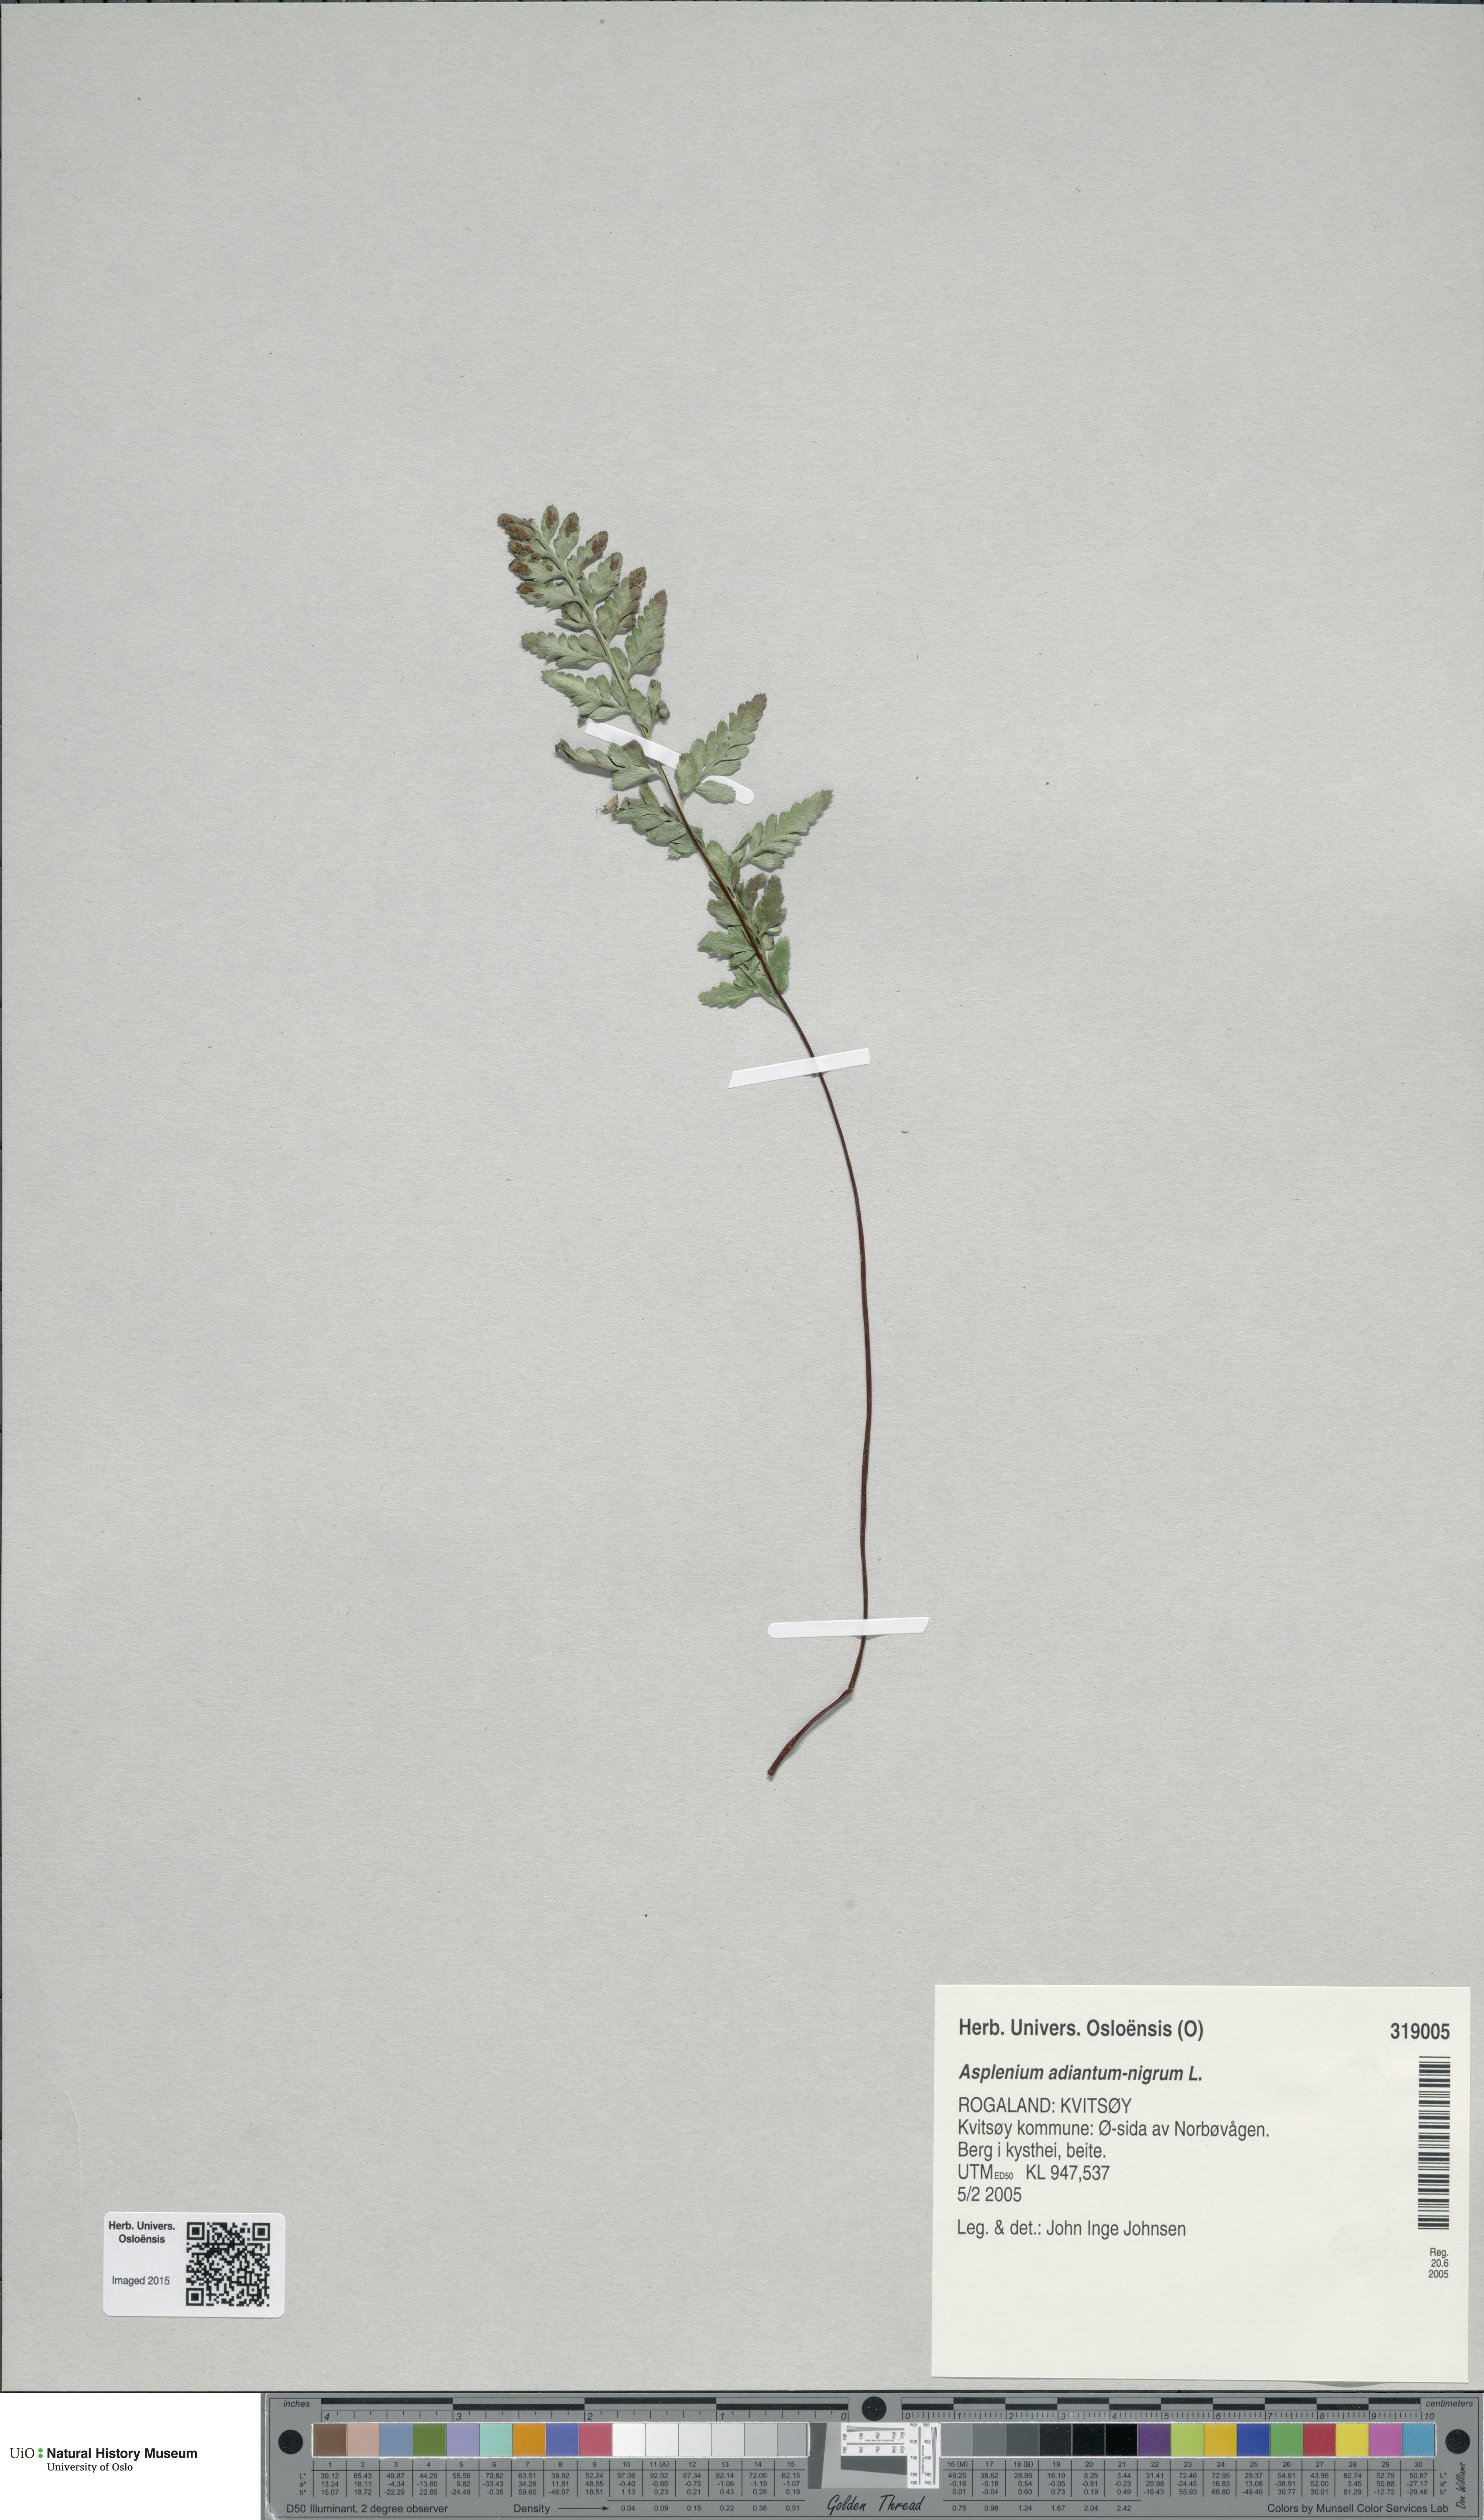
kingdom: Plantae
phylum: Tracheophyta
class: Polypodiopsida
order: Polypodiales
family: Aspleniaceae
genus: Asplenium
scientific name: Asplenium adiantum-nigrum
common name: Black spleenwort
